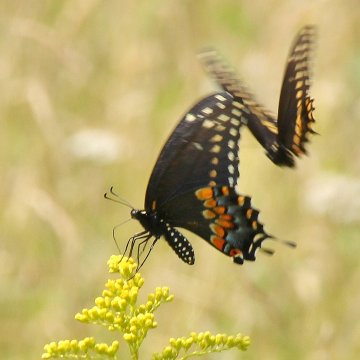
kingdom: Animalia
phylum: Arthropoda
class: Insecta
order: Lepidoptera
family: Papilionidae
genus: Papilio
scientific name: Papilio polyxenes
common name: Black Swallowtail
